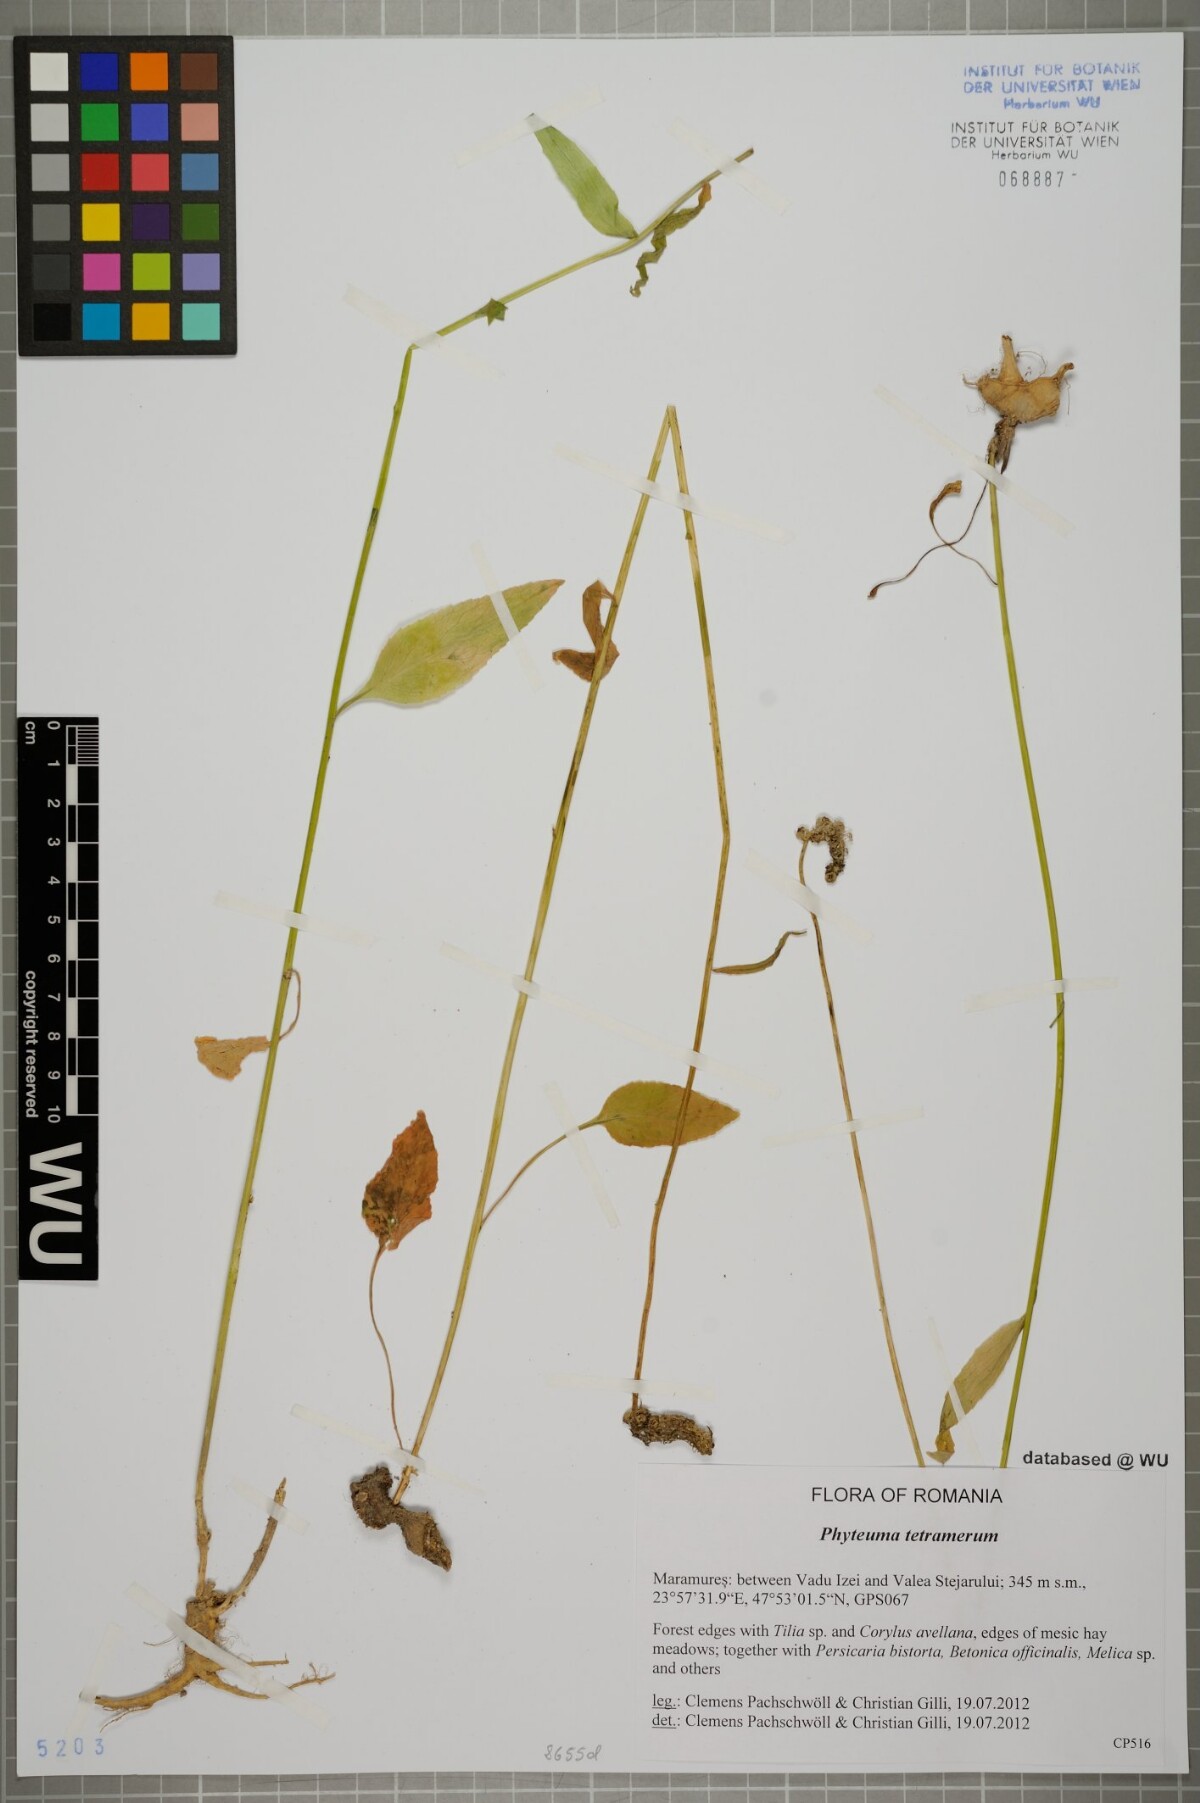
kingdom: Plantae
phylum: Tracheophyta
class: Magnoliopsida
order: Asterales
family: Campanulaceae
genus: Phyteuma
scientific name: Phyteuma tetramerum
